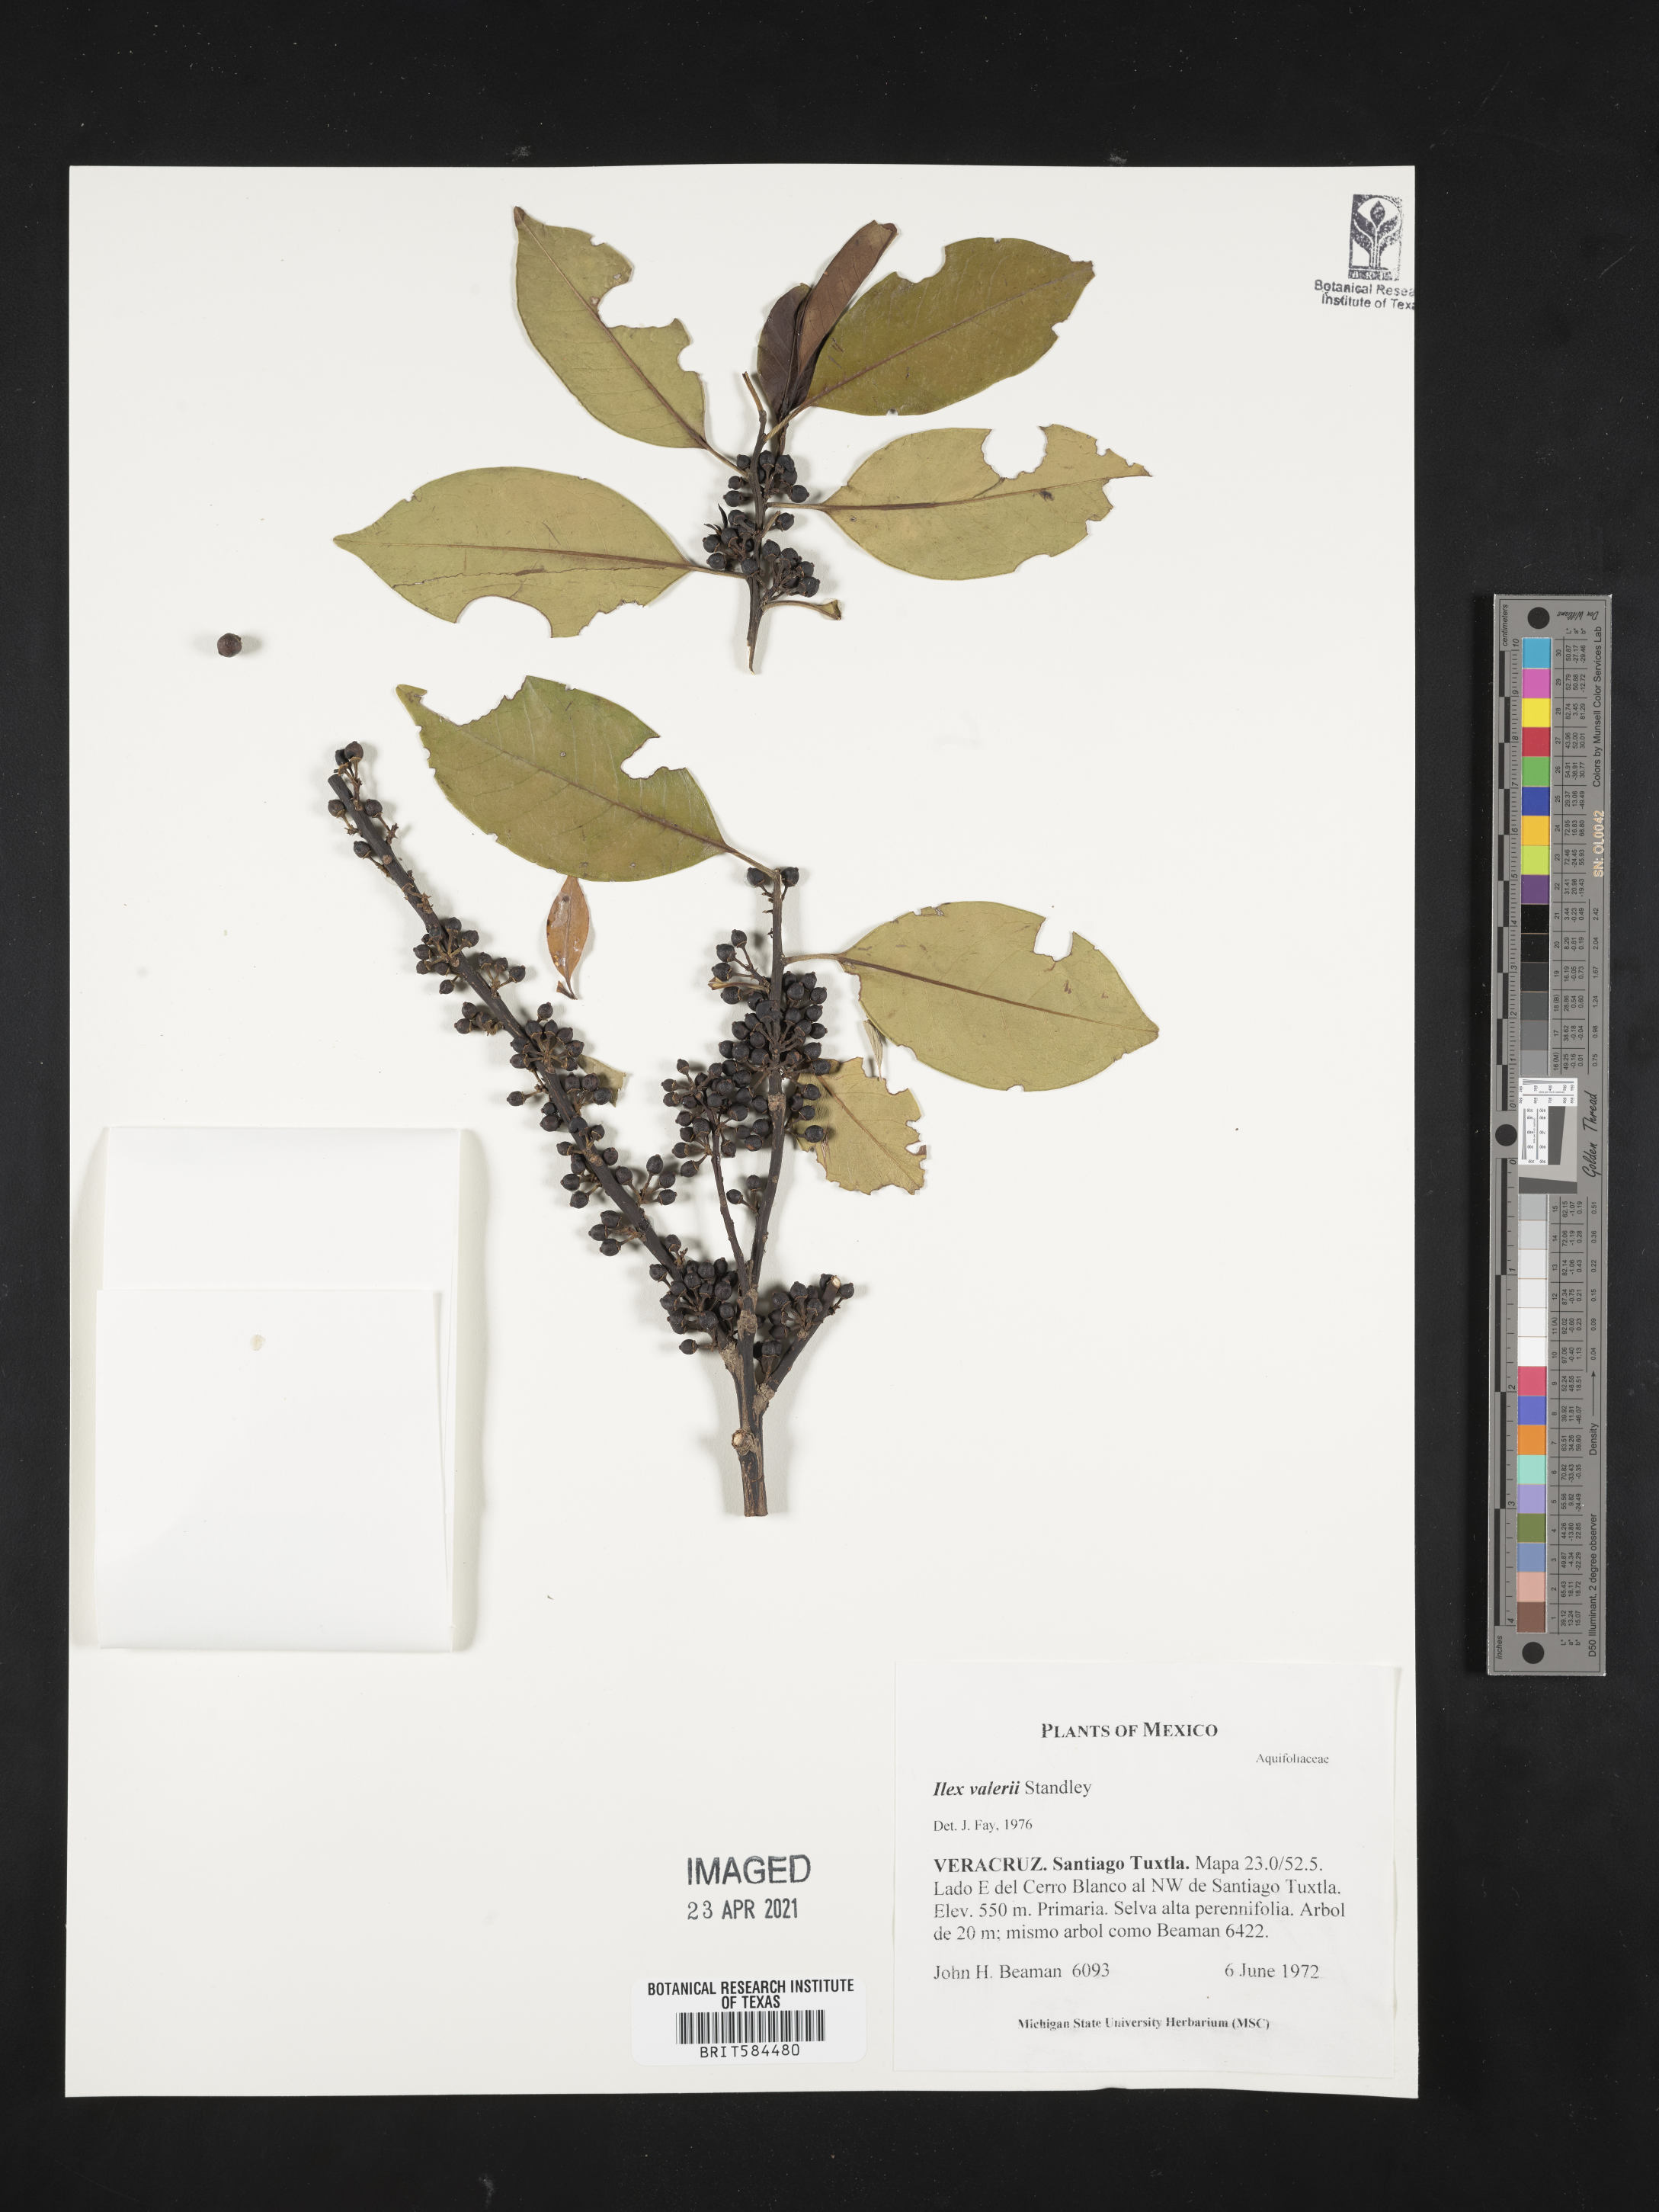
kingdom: Plantae
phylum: Tracheophyta
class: Magnoliopsida
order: Aquifoliales
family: Aquifoliaceae
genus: Ilex
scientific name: Ilex costaricensis
